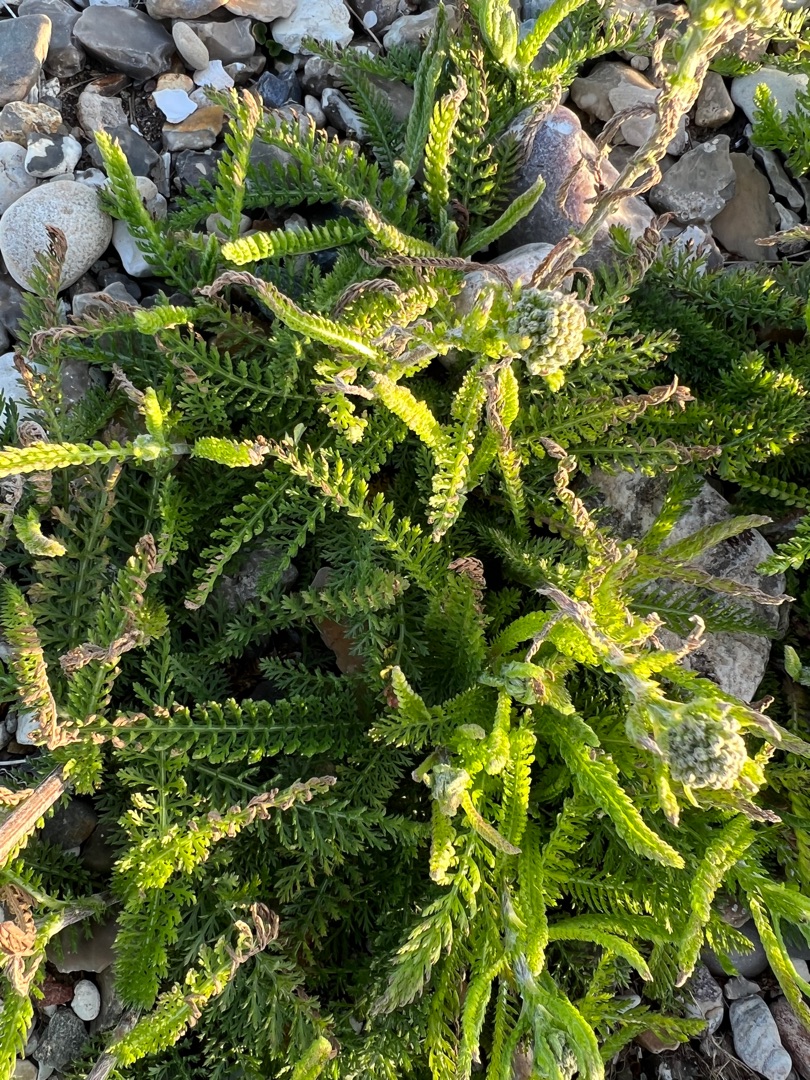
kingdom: Plantae
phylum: Tracheophyta
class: Magnoliopsida
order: Asterales
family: Asteraceae
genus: Achillea
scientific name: Achillea millefolium
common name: Almindelig røllike
